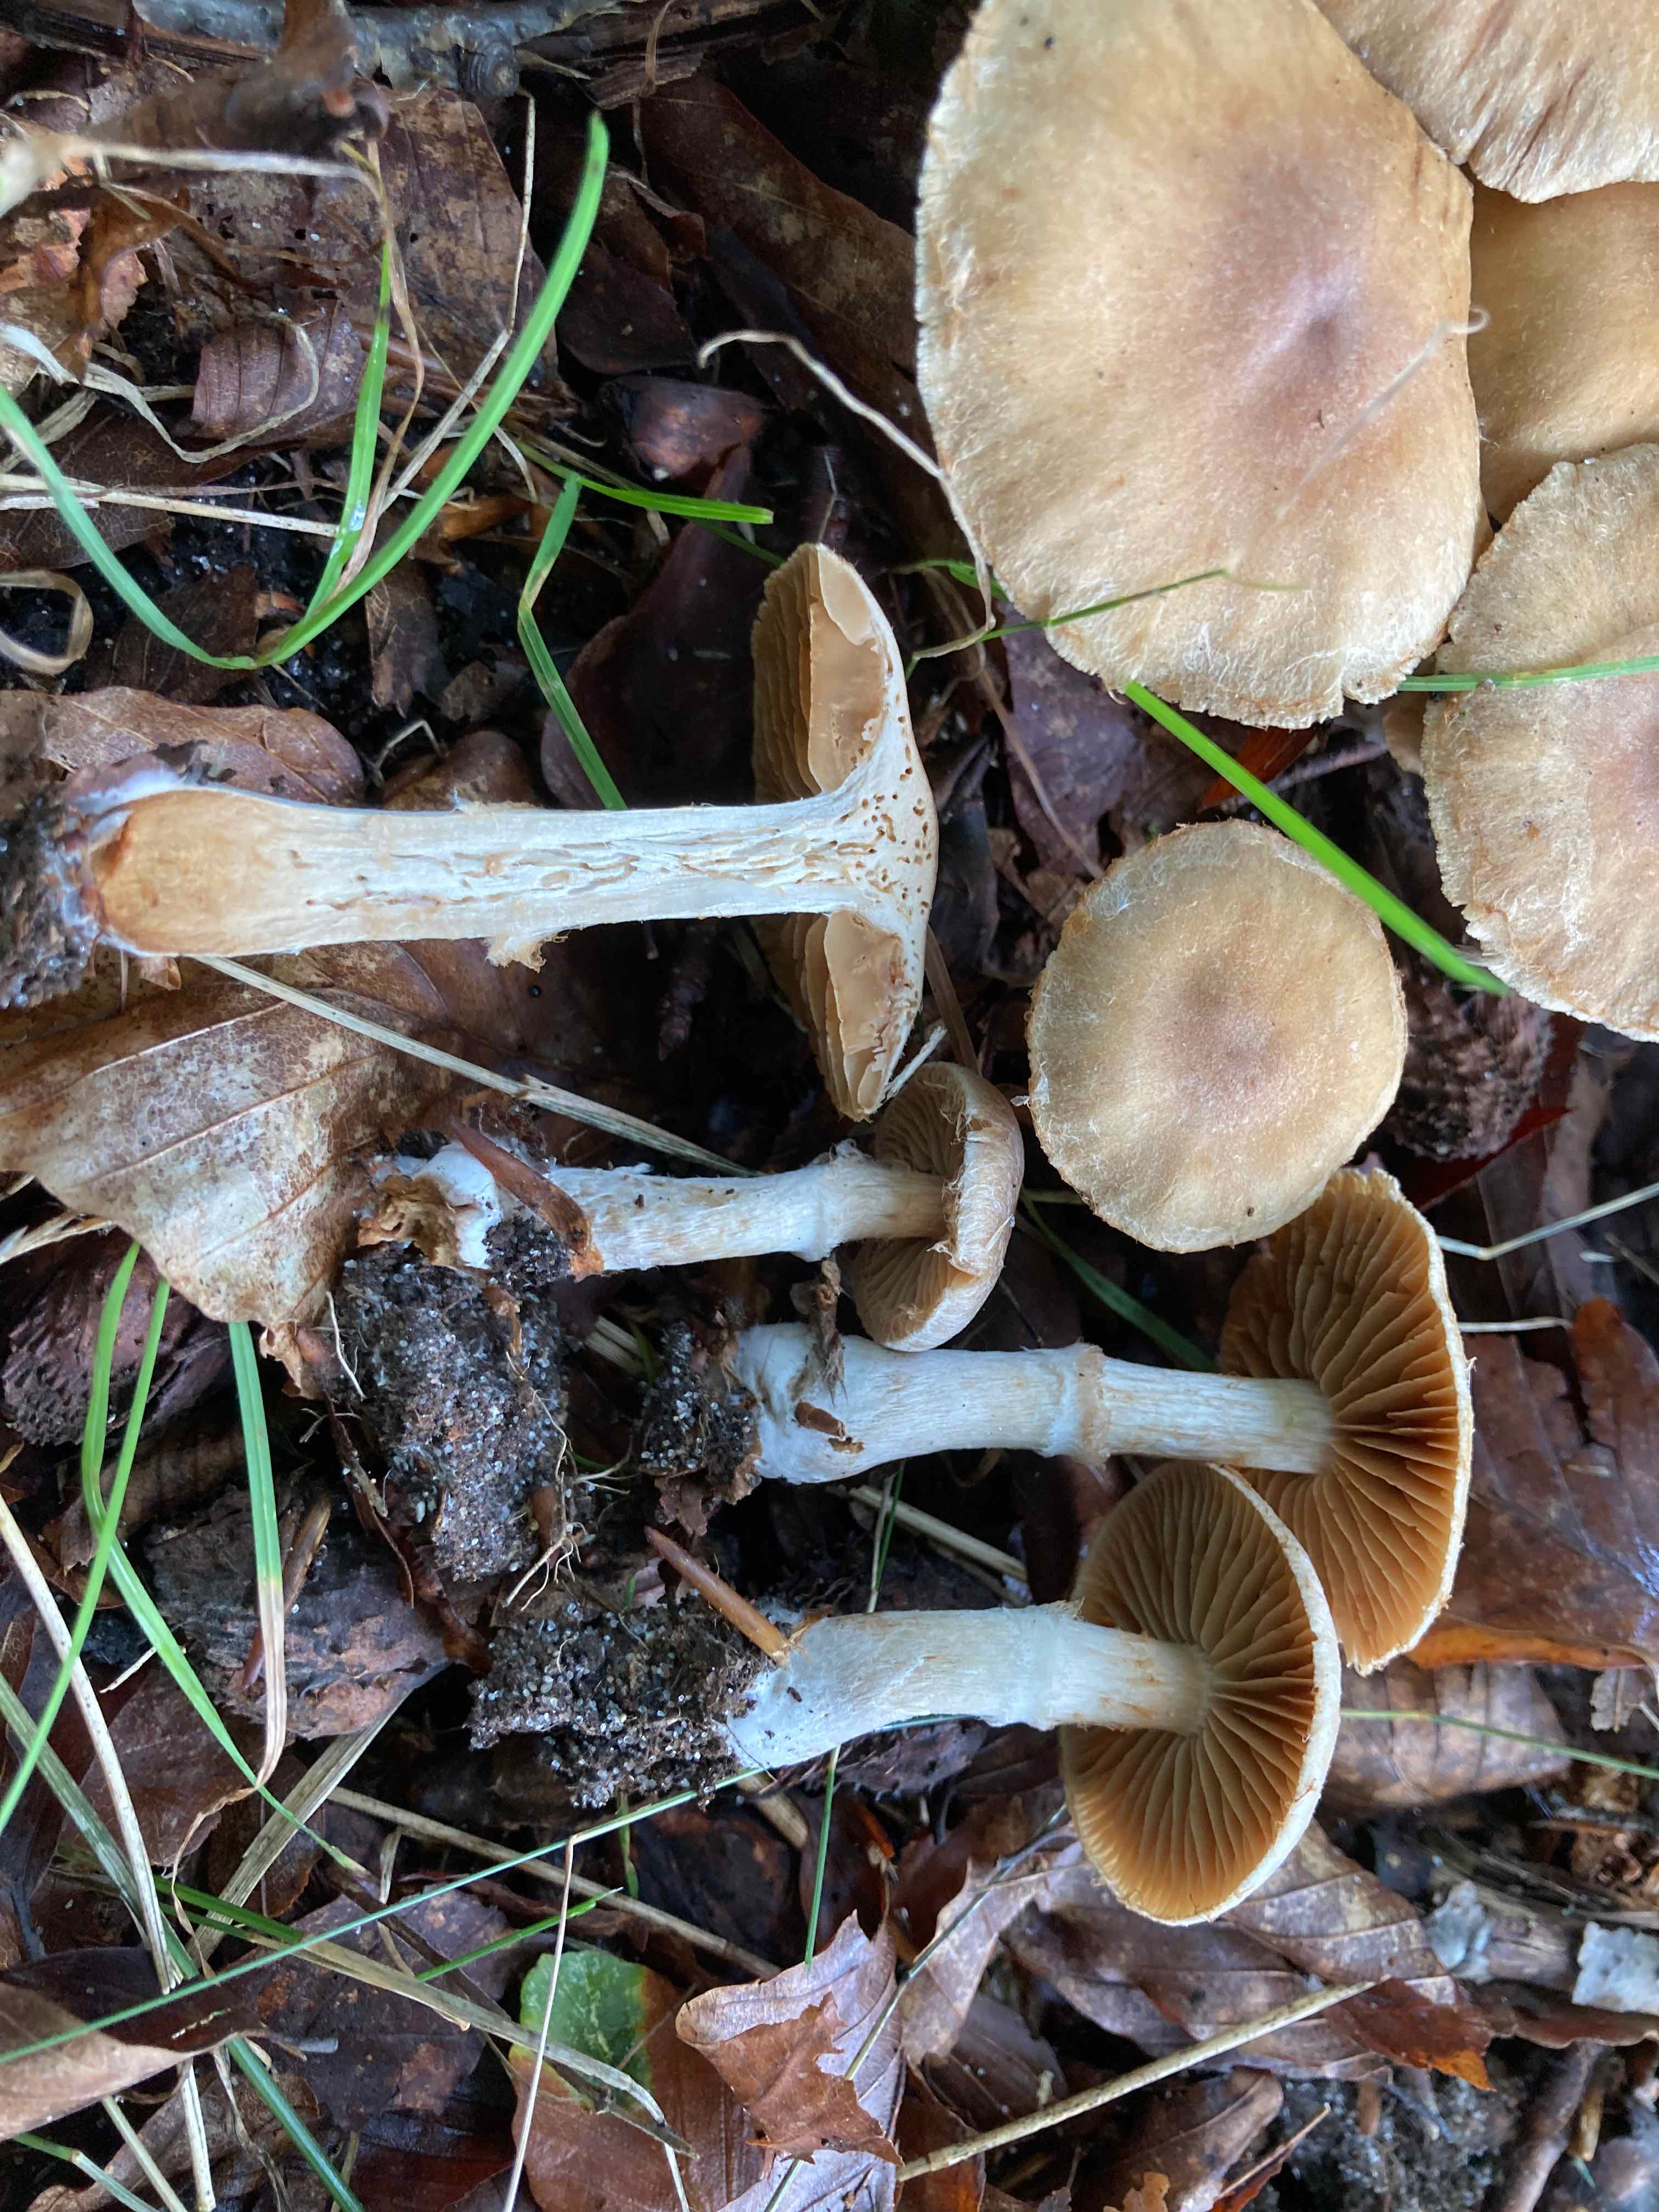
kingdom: Fungi
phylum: Basidiomycota
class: Agaricomycetes
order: Agaricales
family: Cortinariaceae
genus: Cortinarius
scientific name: Cortinarius
